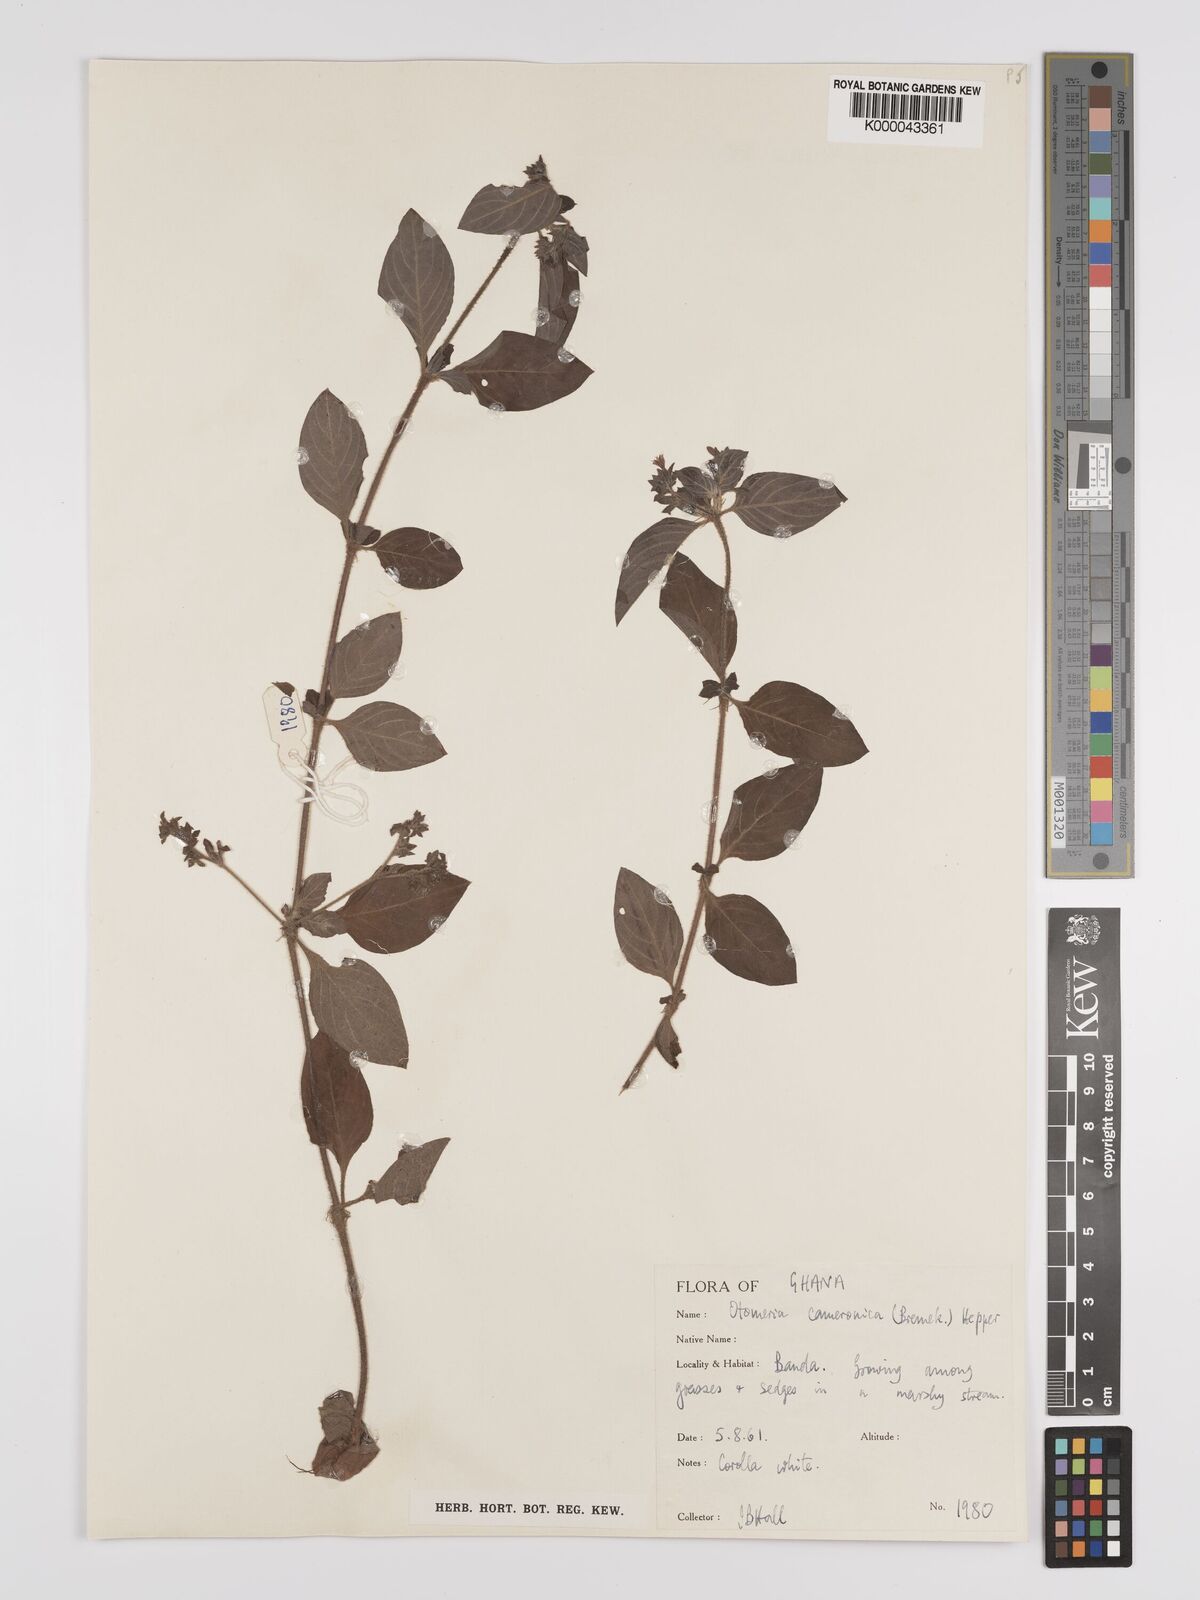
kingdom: Plantae
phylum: Tracheophyta
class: Magnoliopsida
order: Gentianales
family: Rubiaceae
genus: Otomeria
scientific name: Otomeria cameronica
